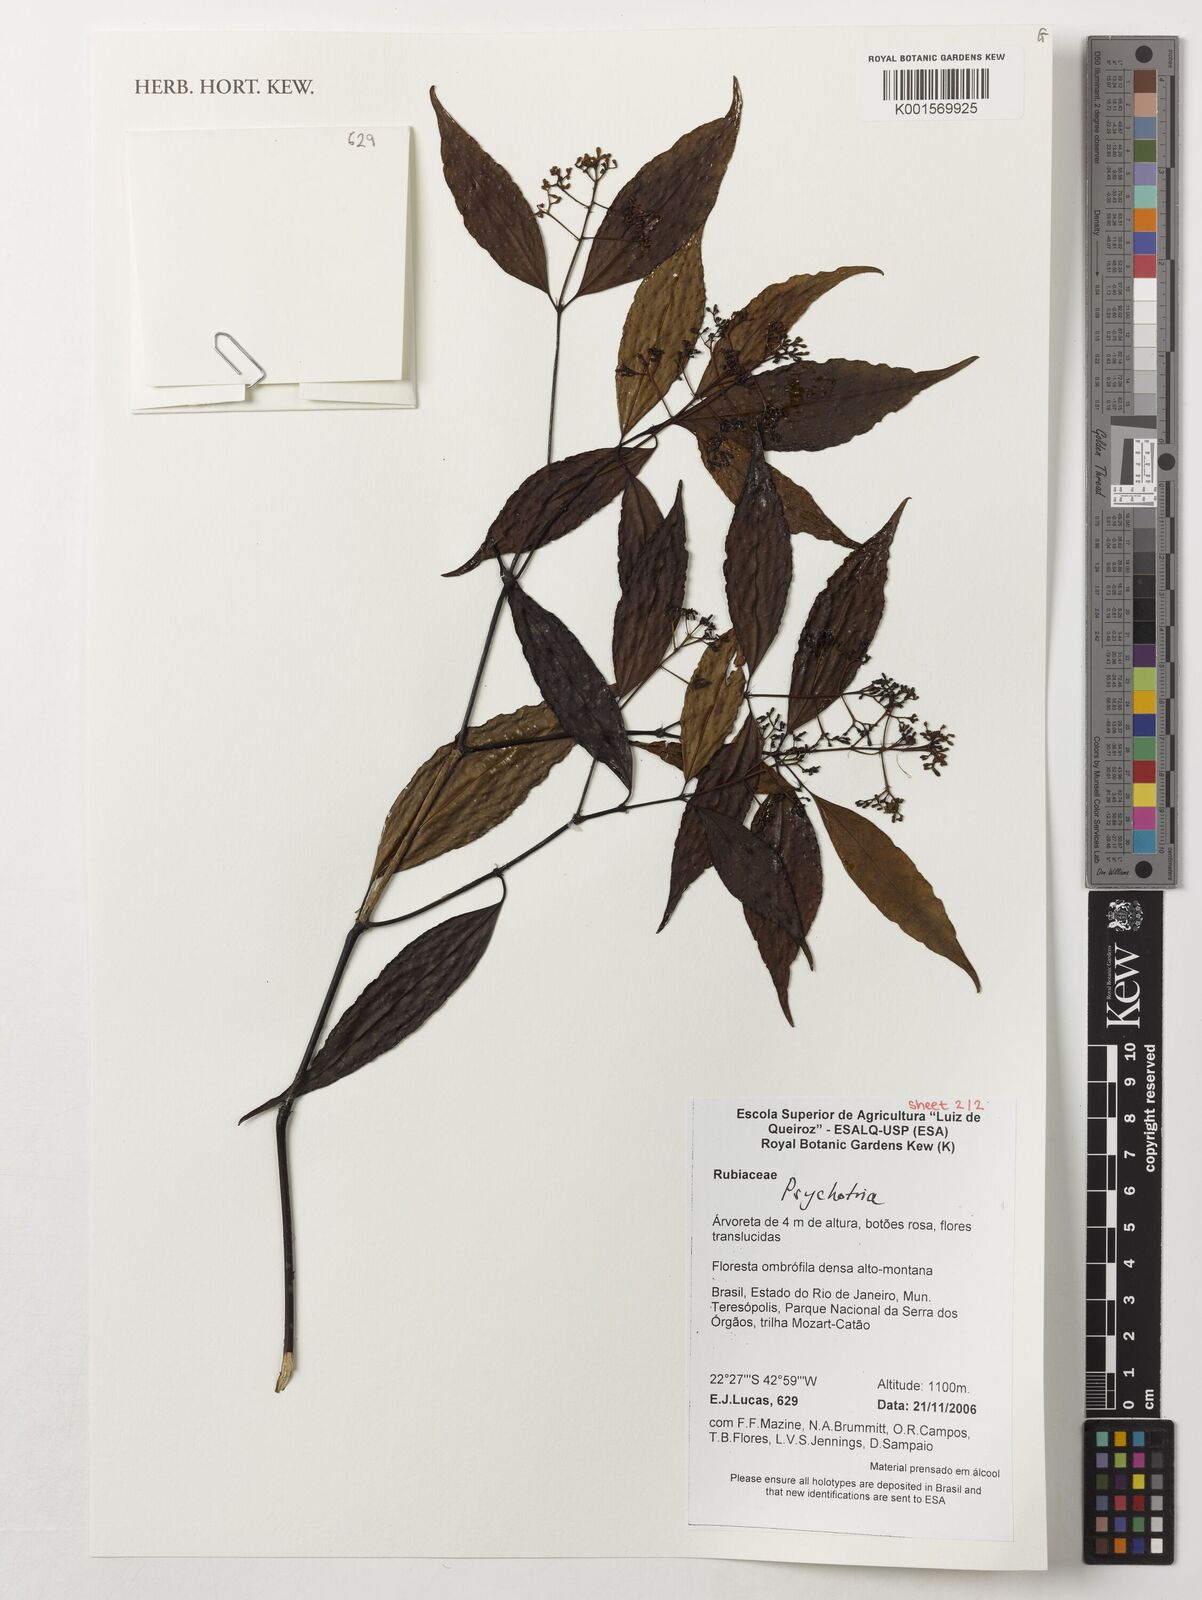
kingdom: Plantae
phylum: Tracheophyta
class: Magnoliopsida
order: Gentianales
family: Rubiaceae
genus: Psychotria
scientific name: Psychotria
